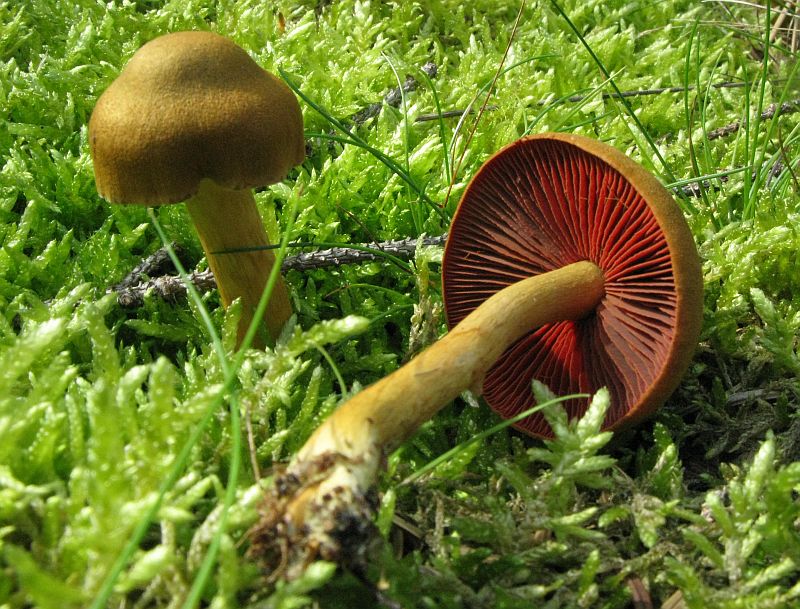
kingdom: Fungi
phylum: Basidiomycota
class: Agaricomycetes
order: Agaricales
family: Cortinariaceae
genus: Cortinarius
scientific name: Cortinarius
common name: cinnoberbladet slørhat
